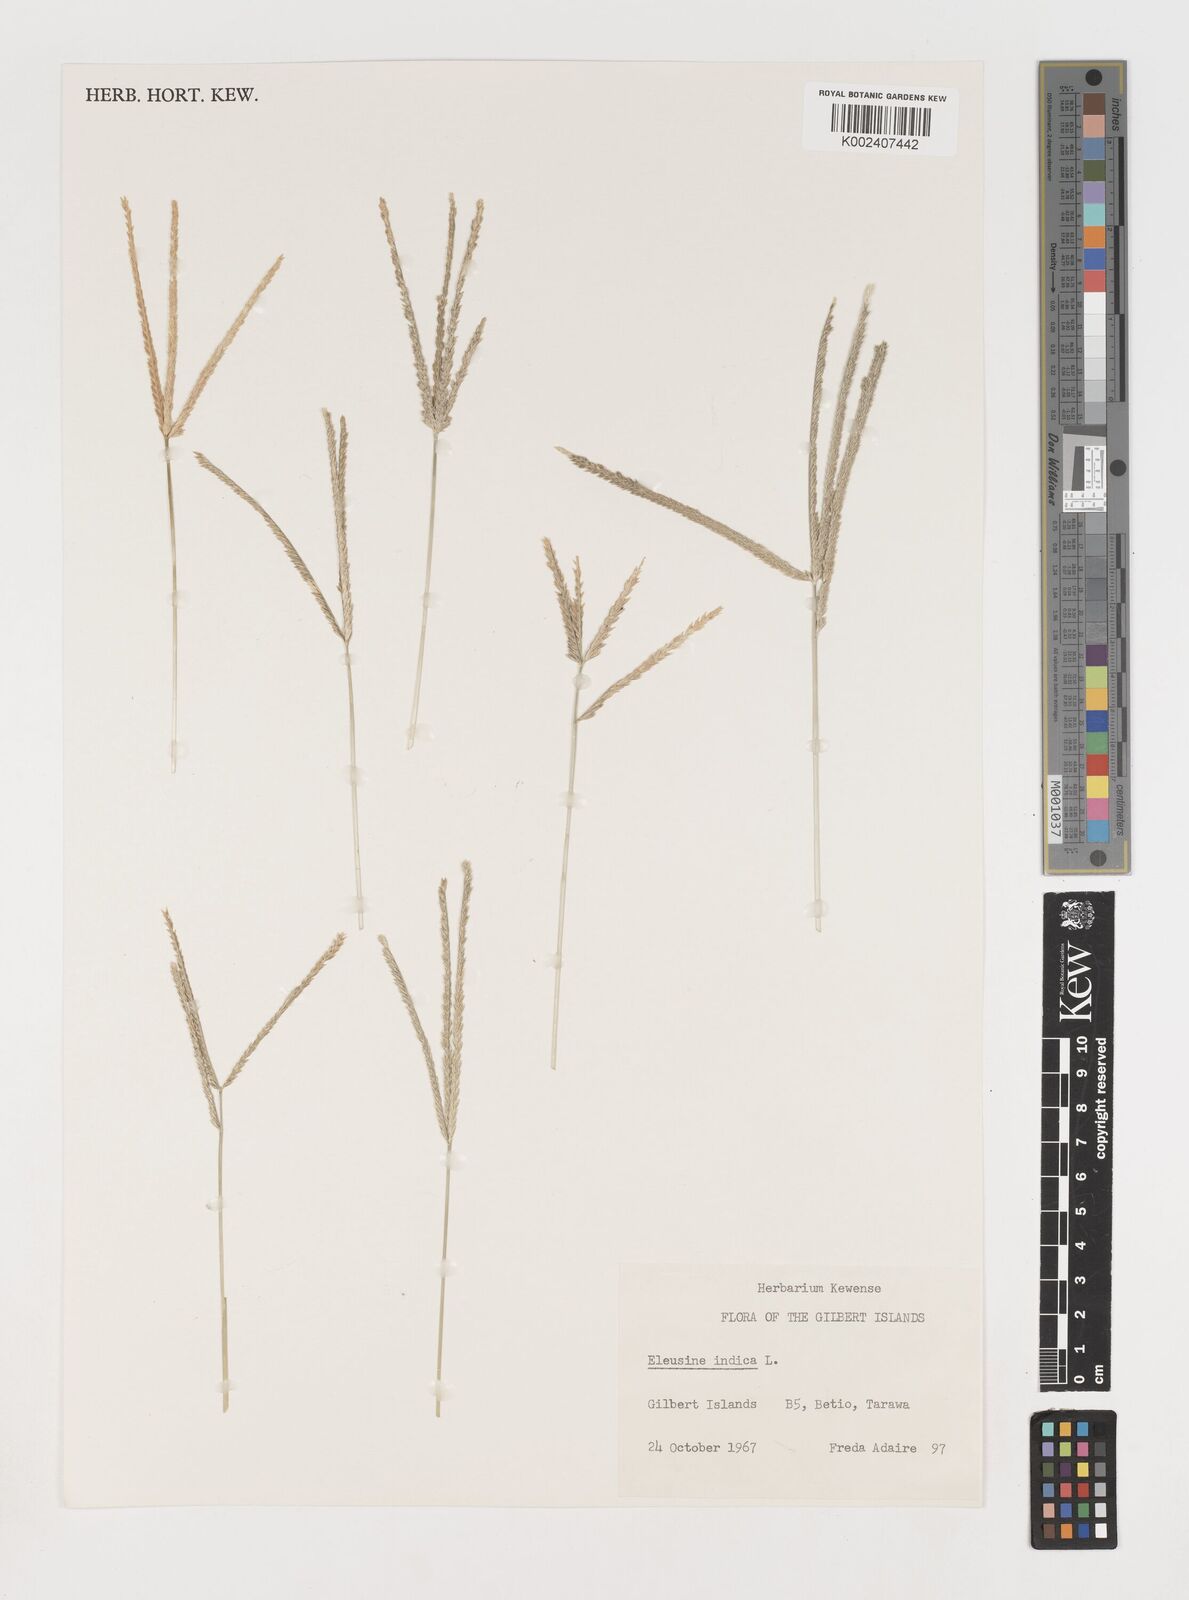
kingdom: Plantae
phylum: Tracheophyta
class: Liliopsida
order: Poales
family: Poaceae
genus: Eleusine
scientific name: Eleusine indica
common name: Yard-grass
